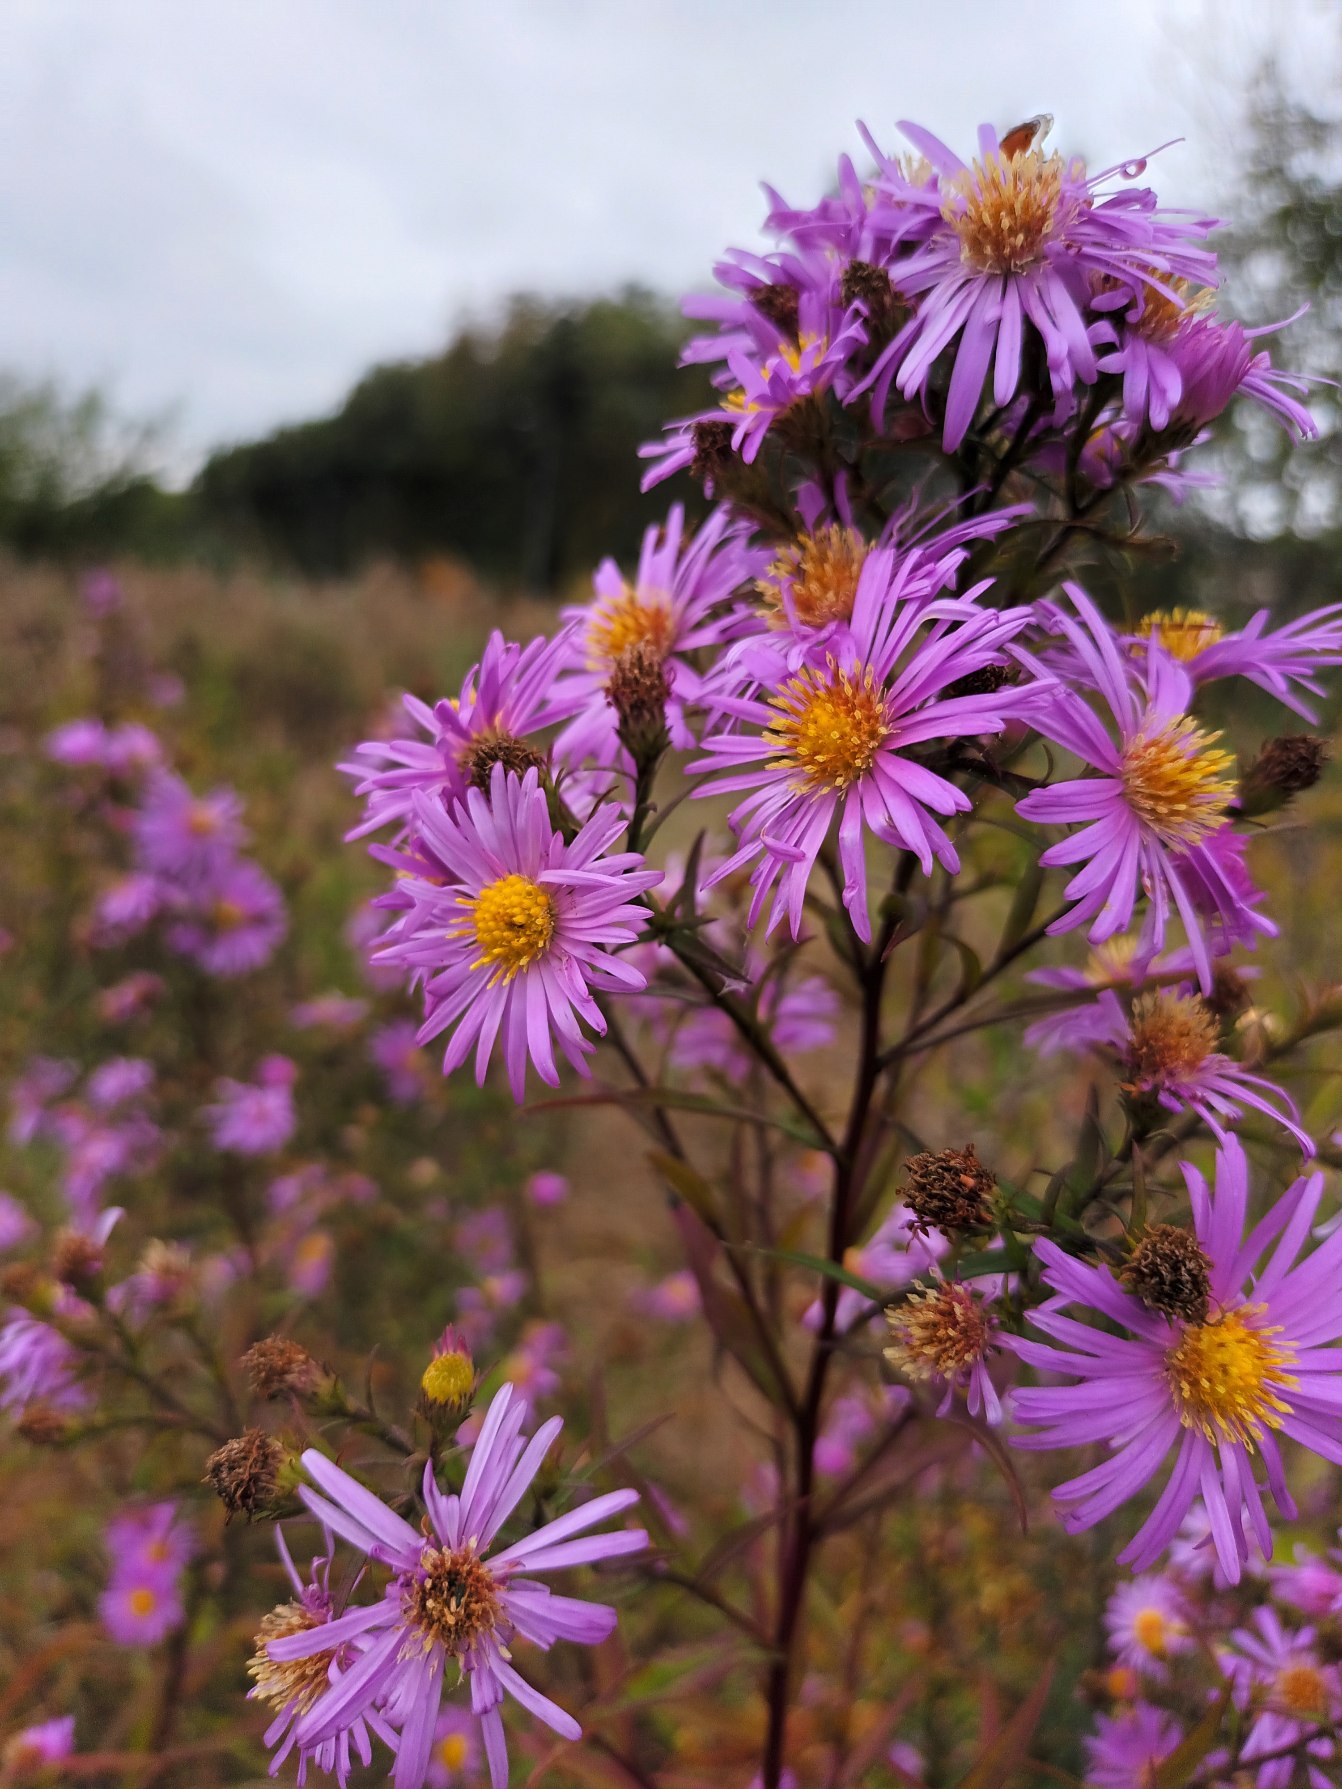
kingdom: Plantae
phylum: Tracheophyta
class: Magnoliopsida
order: Asterales
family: Asteraceae
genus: Symphyotrichum
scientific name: Symphyotrichum laeve
